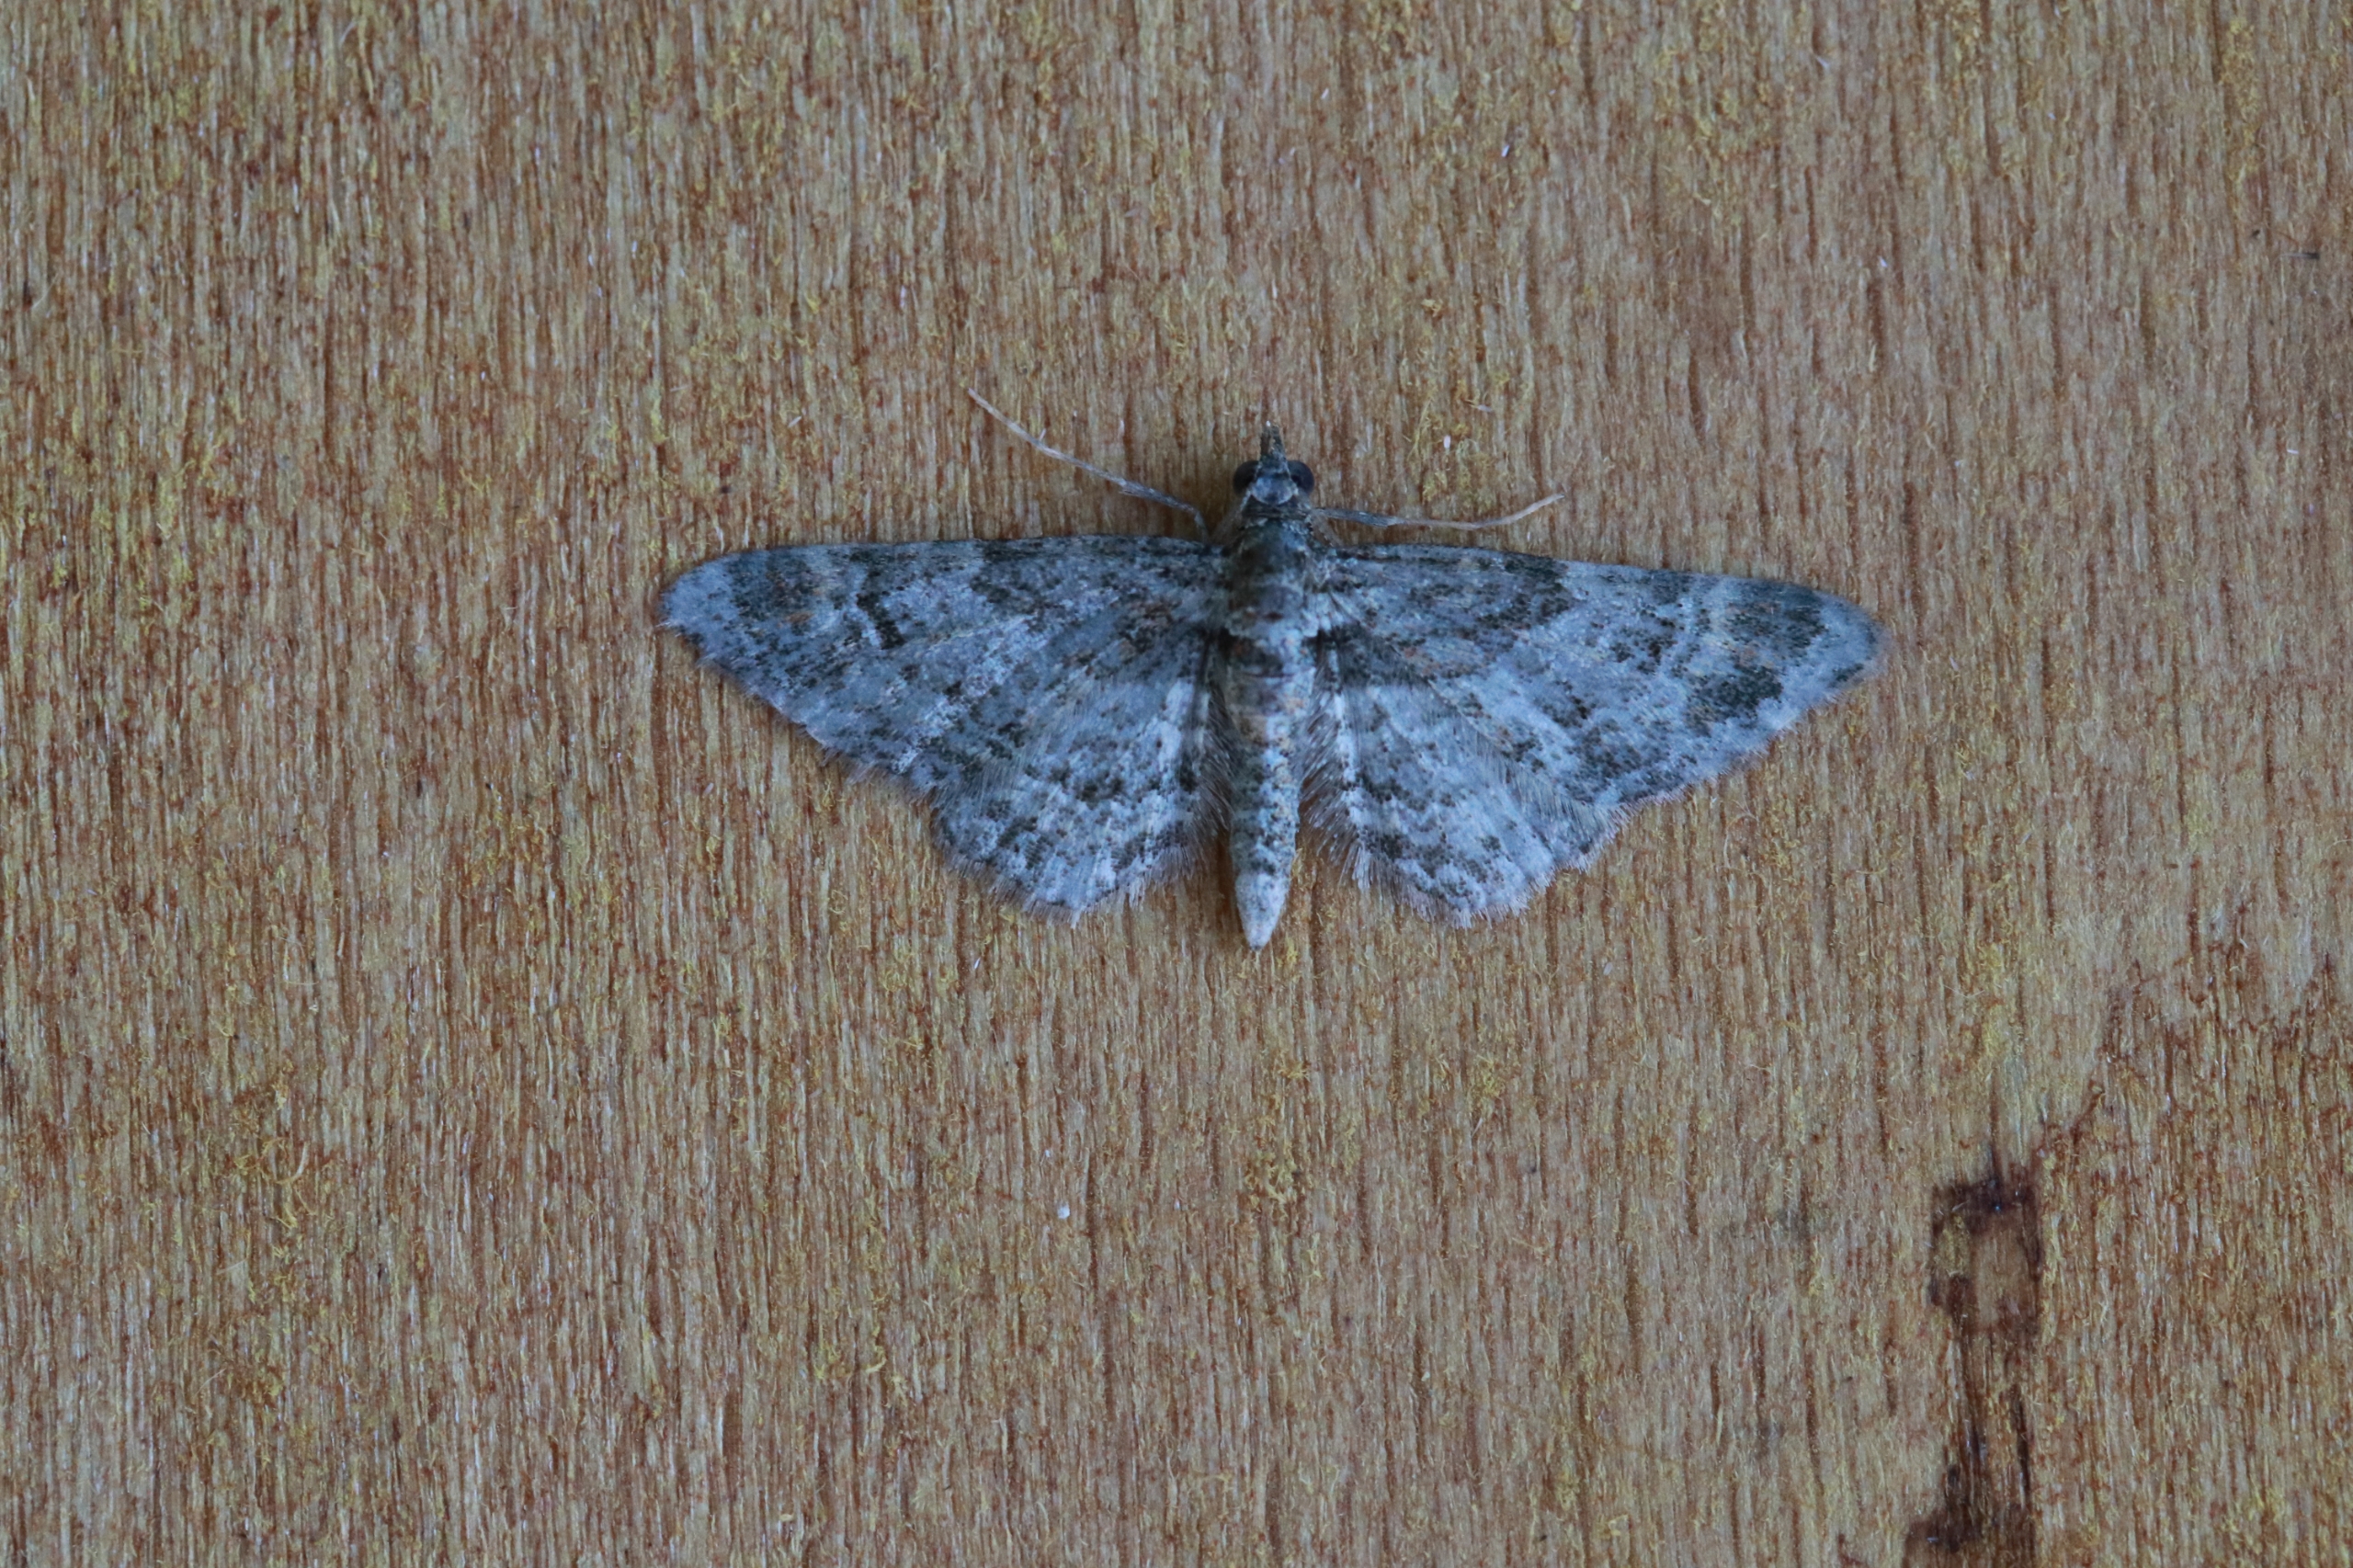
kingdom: Animalia
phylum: Arthropoda
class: Insecta
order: Lepidoptera
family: Geometridae
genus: Gymnoscelis
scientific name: Gymnoscelis rufifasciata
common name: Rødbåndet dværgmåler
